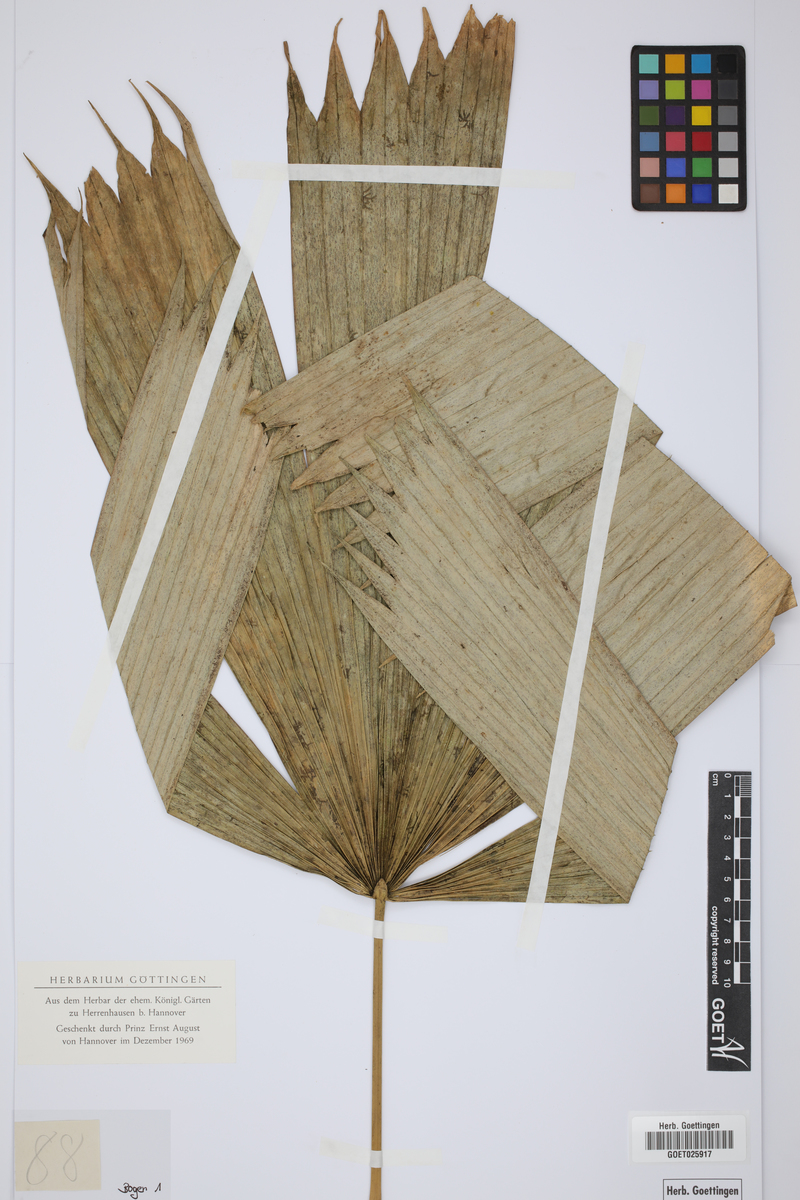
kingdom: Plantae
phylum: Tracheophyta
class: Liliopsida
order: Arecales
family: Arecaceae
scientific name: Arecaceae
